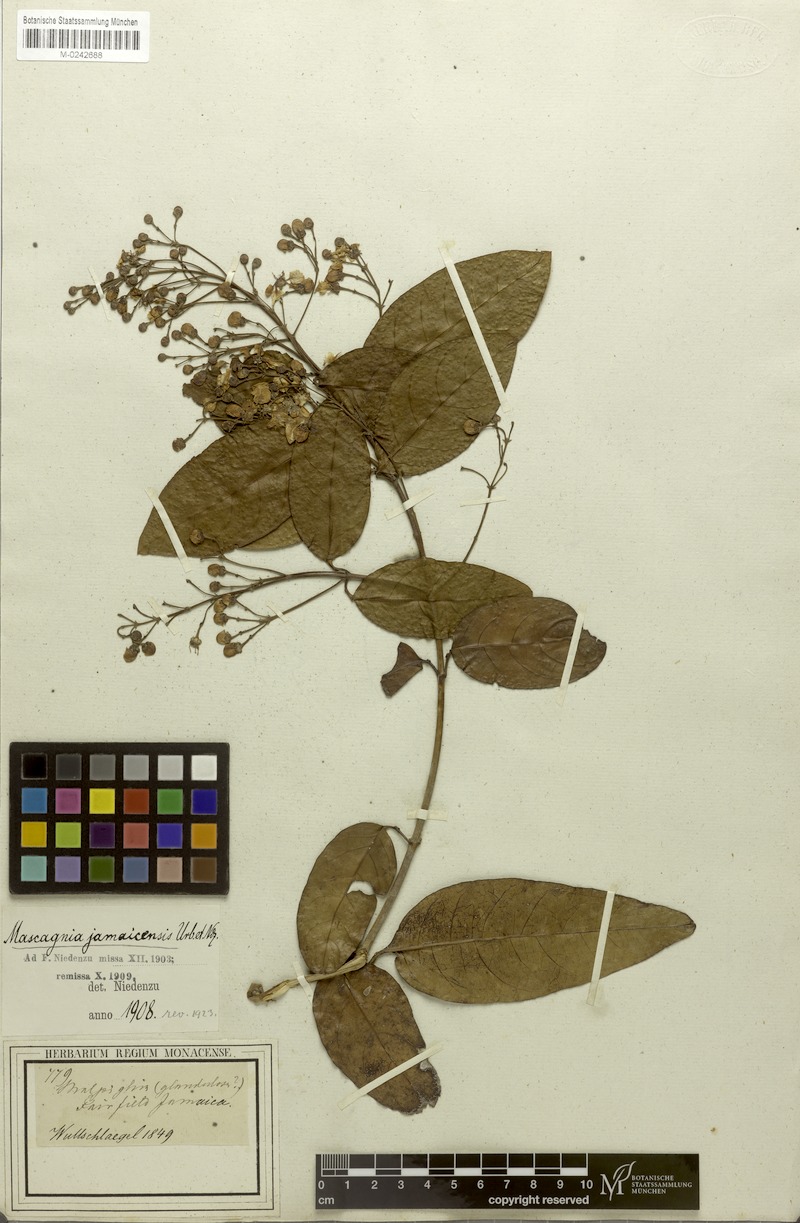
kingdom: Plantae
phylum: Tracheophyta
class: Magnoliopsida
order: Malpighiales
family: Malpighiaceae
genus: Adelphia
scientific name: Adelphia hiraea
